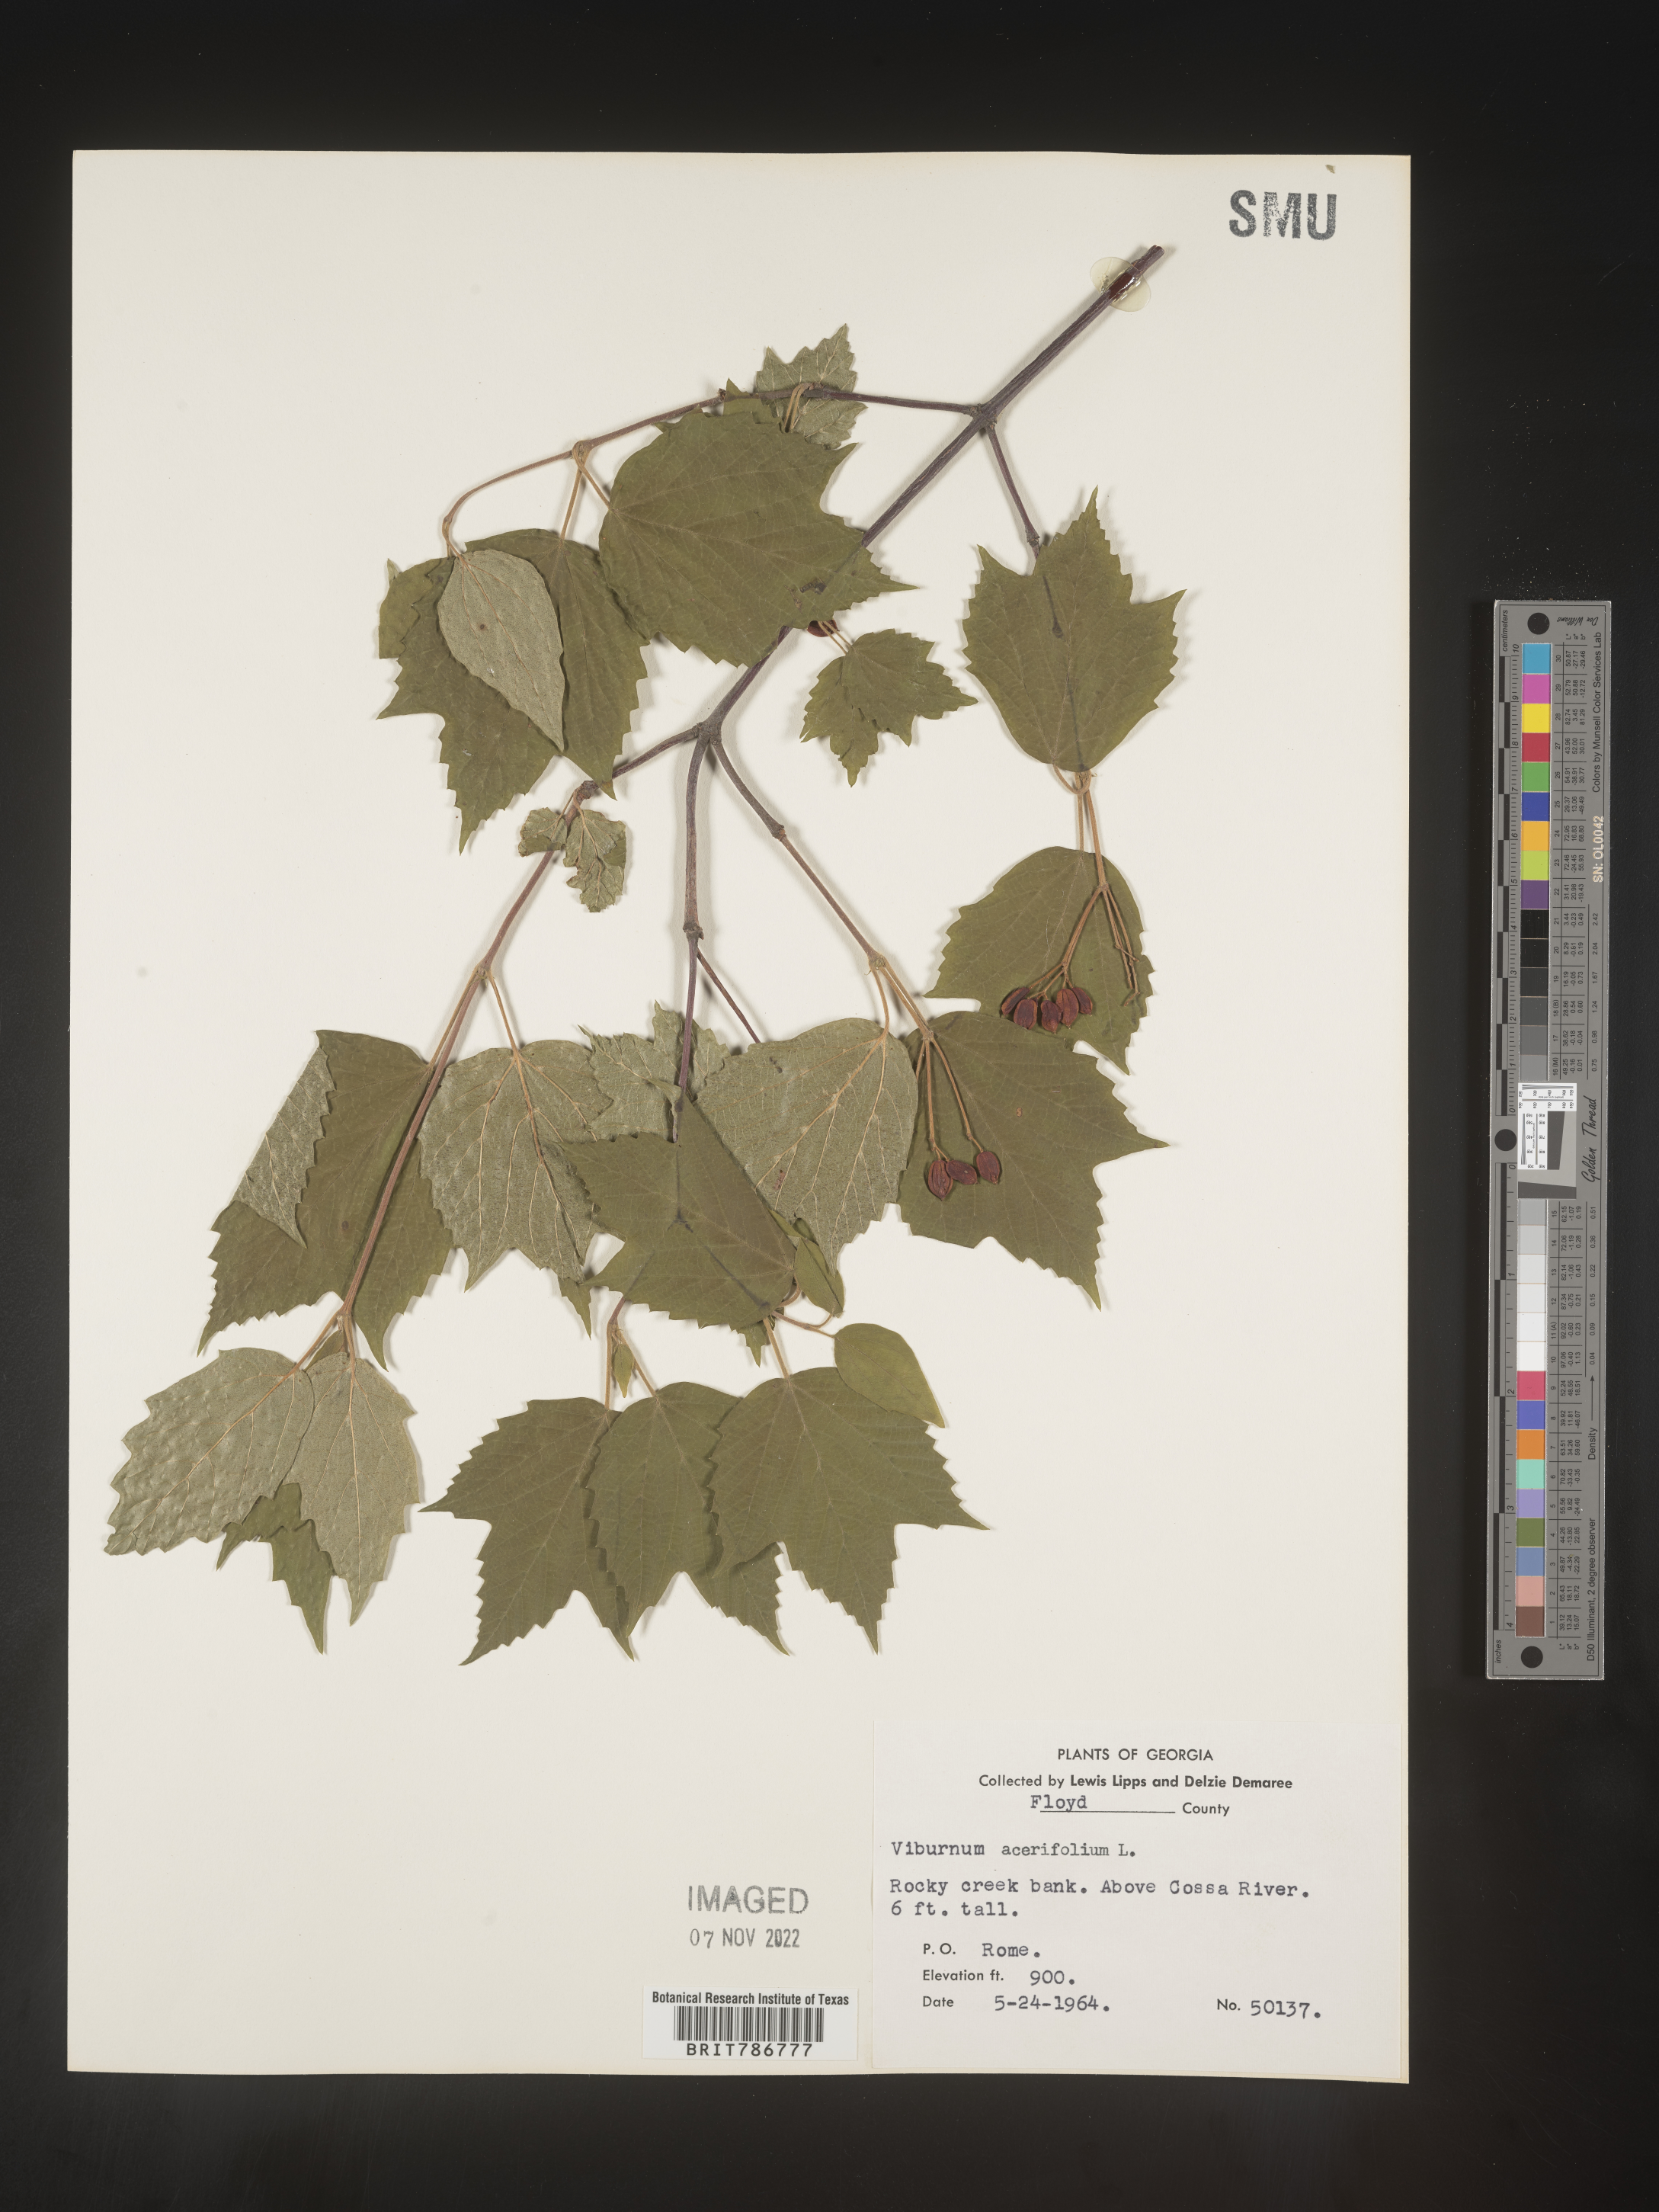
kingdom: Plantae
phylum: Tracheophyta
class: Magnoliopsida
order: Dipsacales
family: Viburnaceae
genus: Viburnum
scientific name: Viburnum acerifolium
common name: Dockmackie
